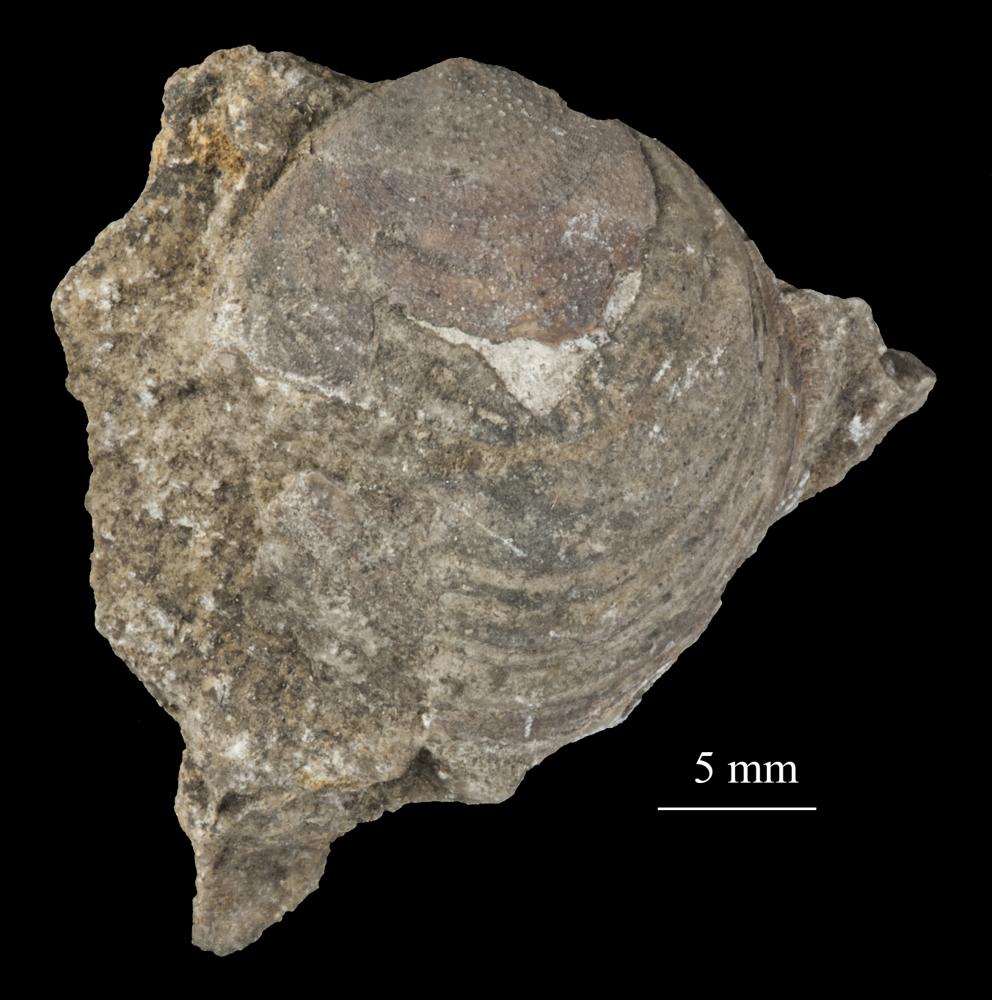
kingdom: Animalia
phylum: Brachiopoda
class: Lingulata
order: Siphonotretida
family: Siphonotretidae
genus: Siphonotreta
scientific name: Siphonotreta
